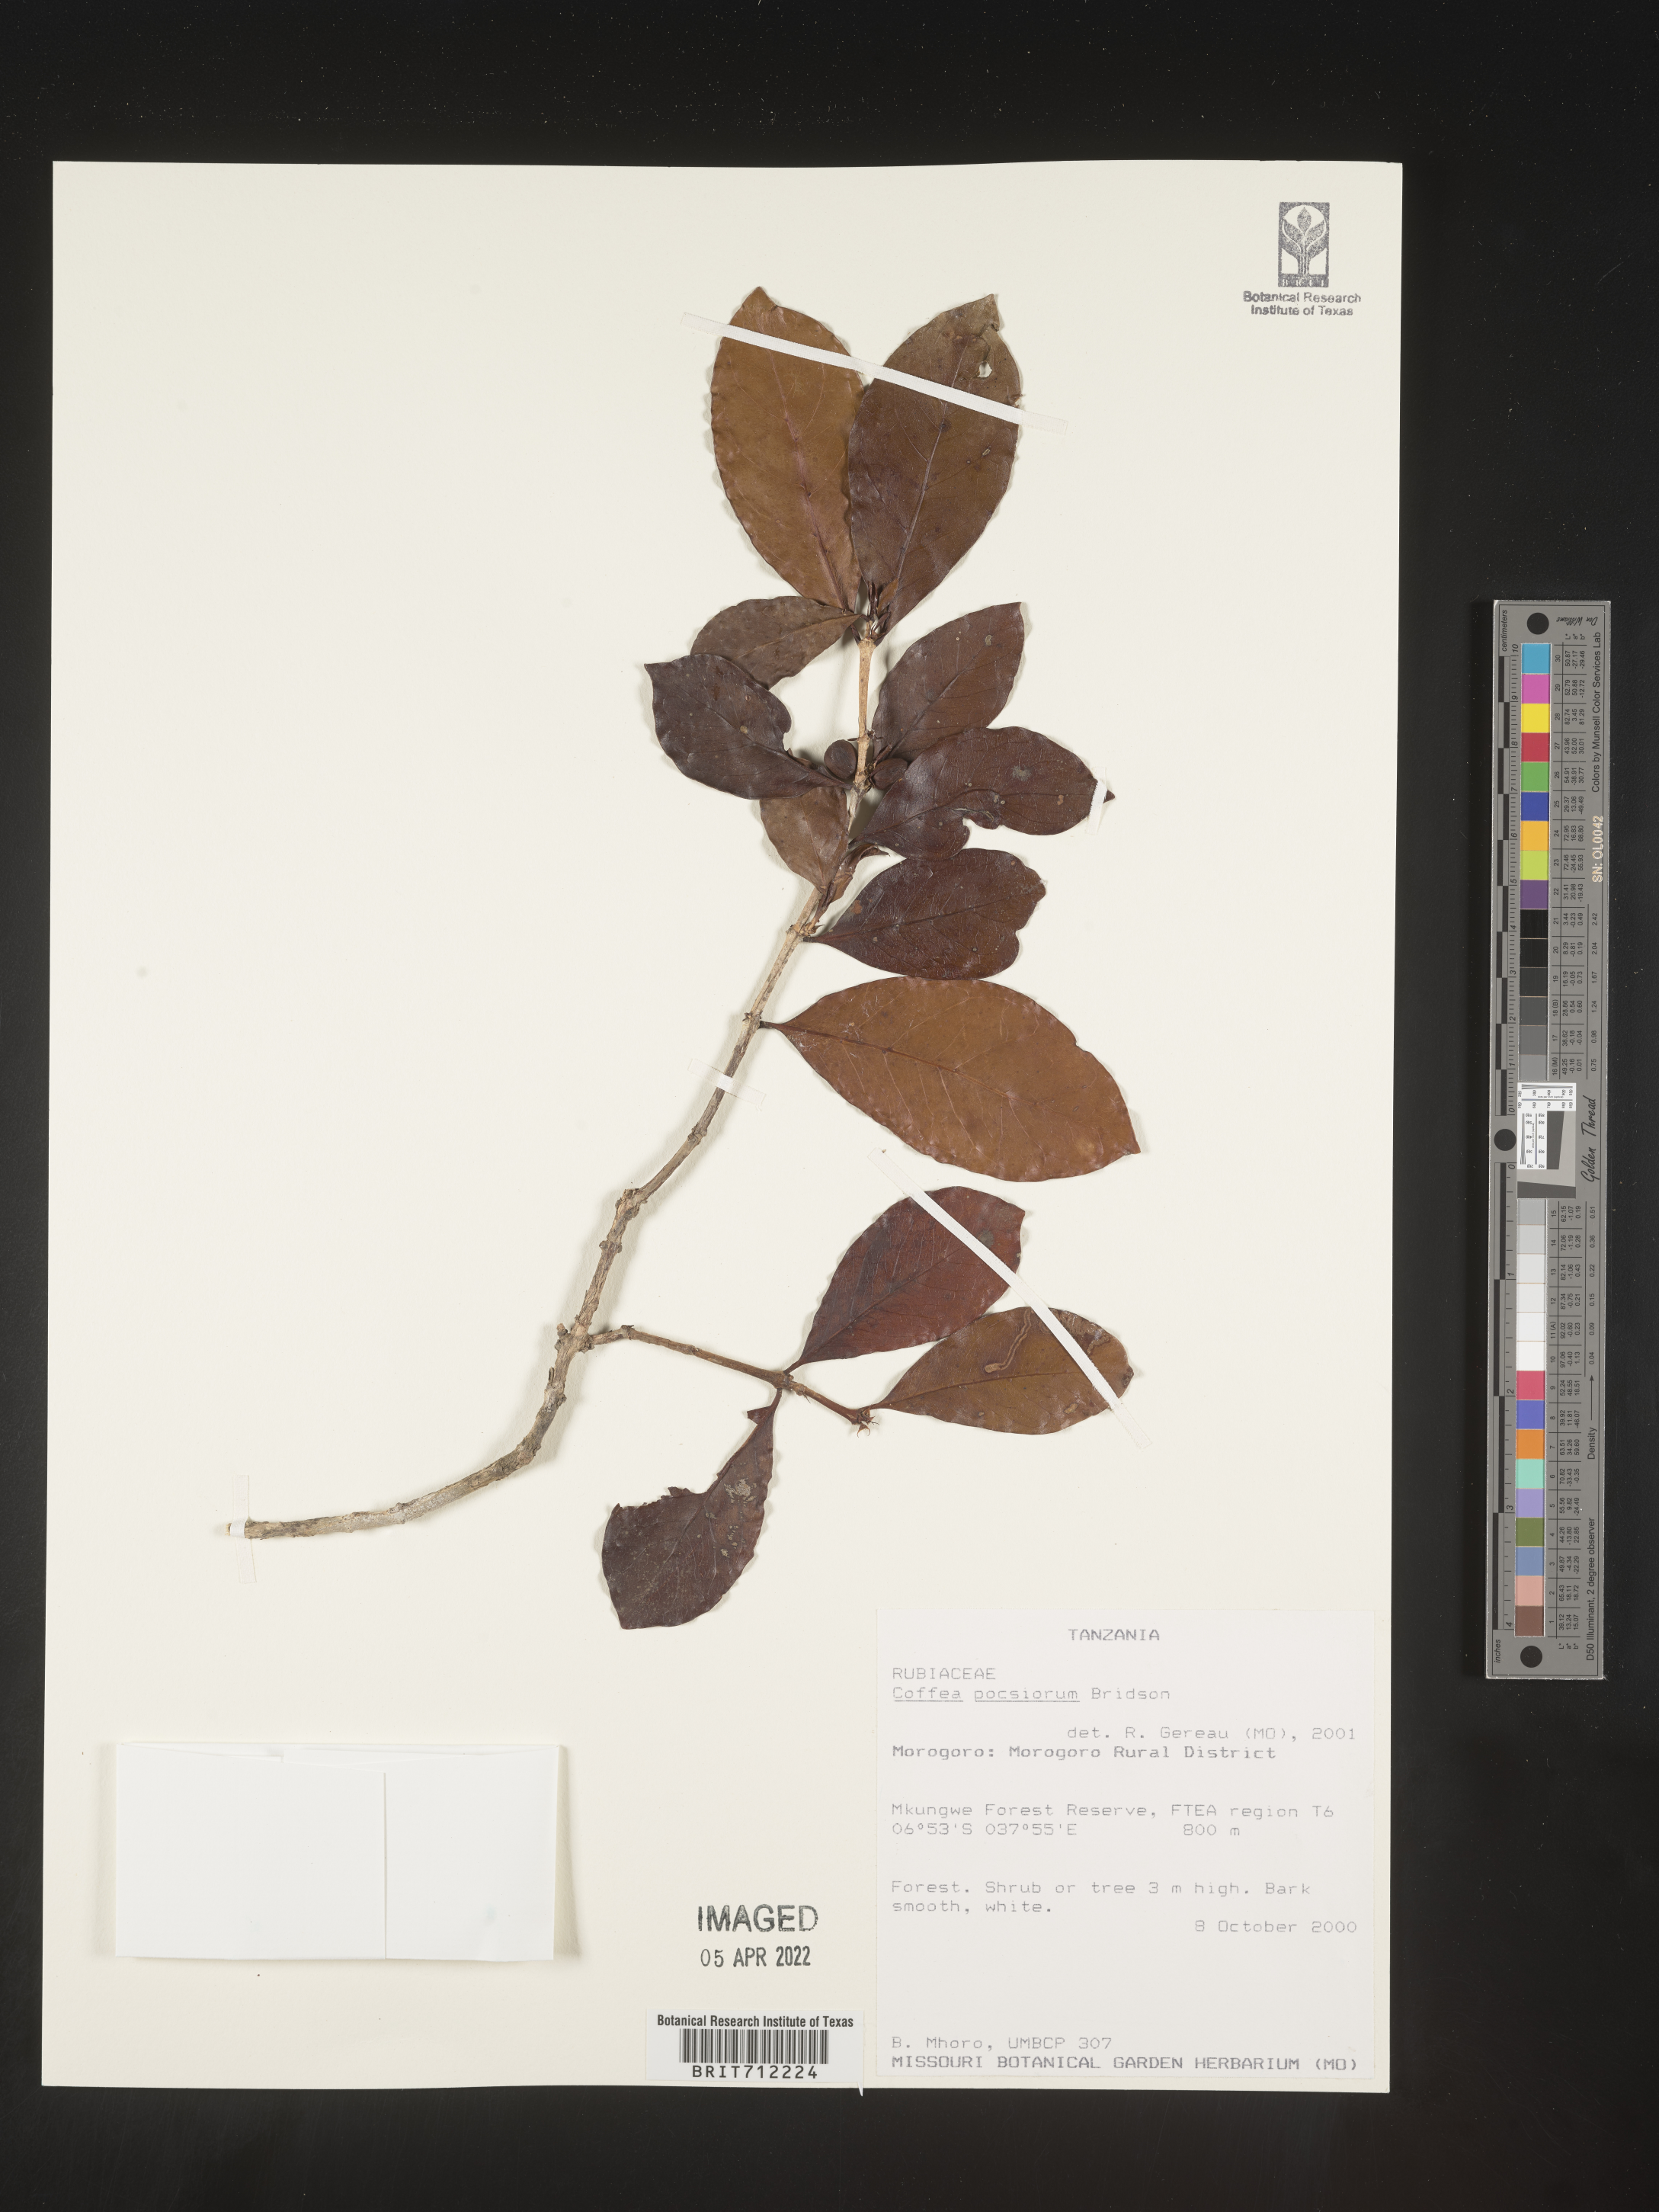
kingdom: Plantae
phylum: Tracheophyta
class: Magnoliopsida
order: Gentianales
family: Rubiaceae
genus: Coffea
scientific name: Coffea
